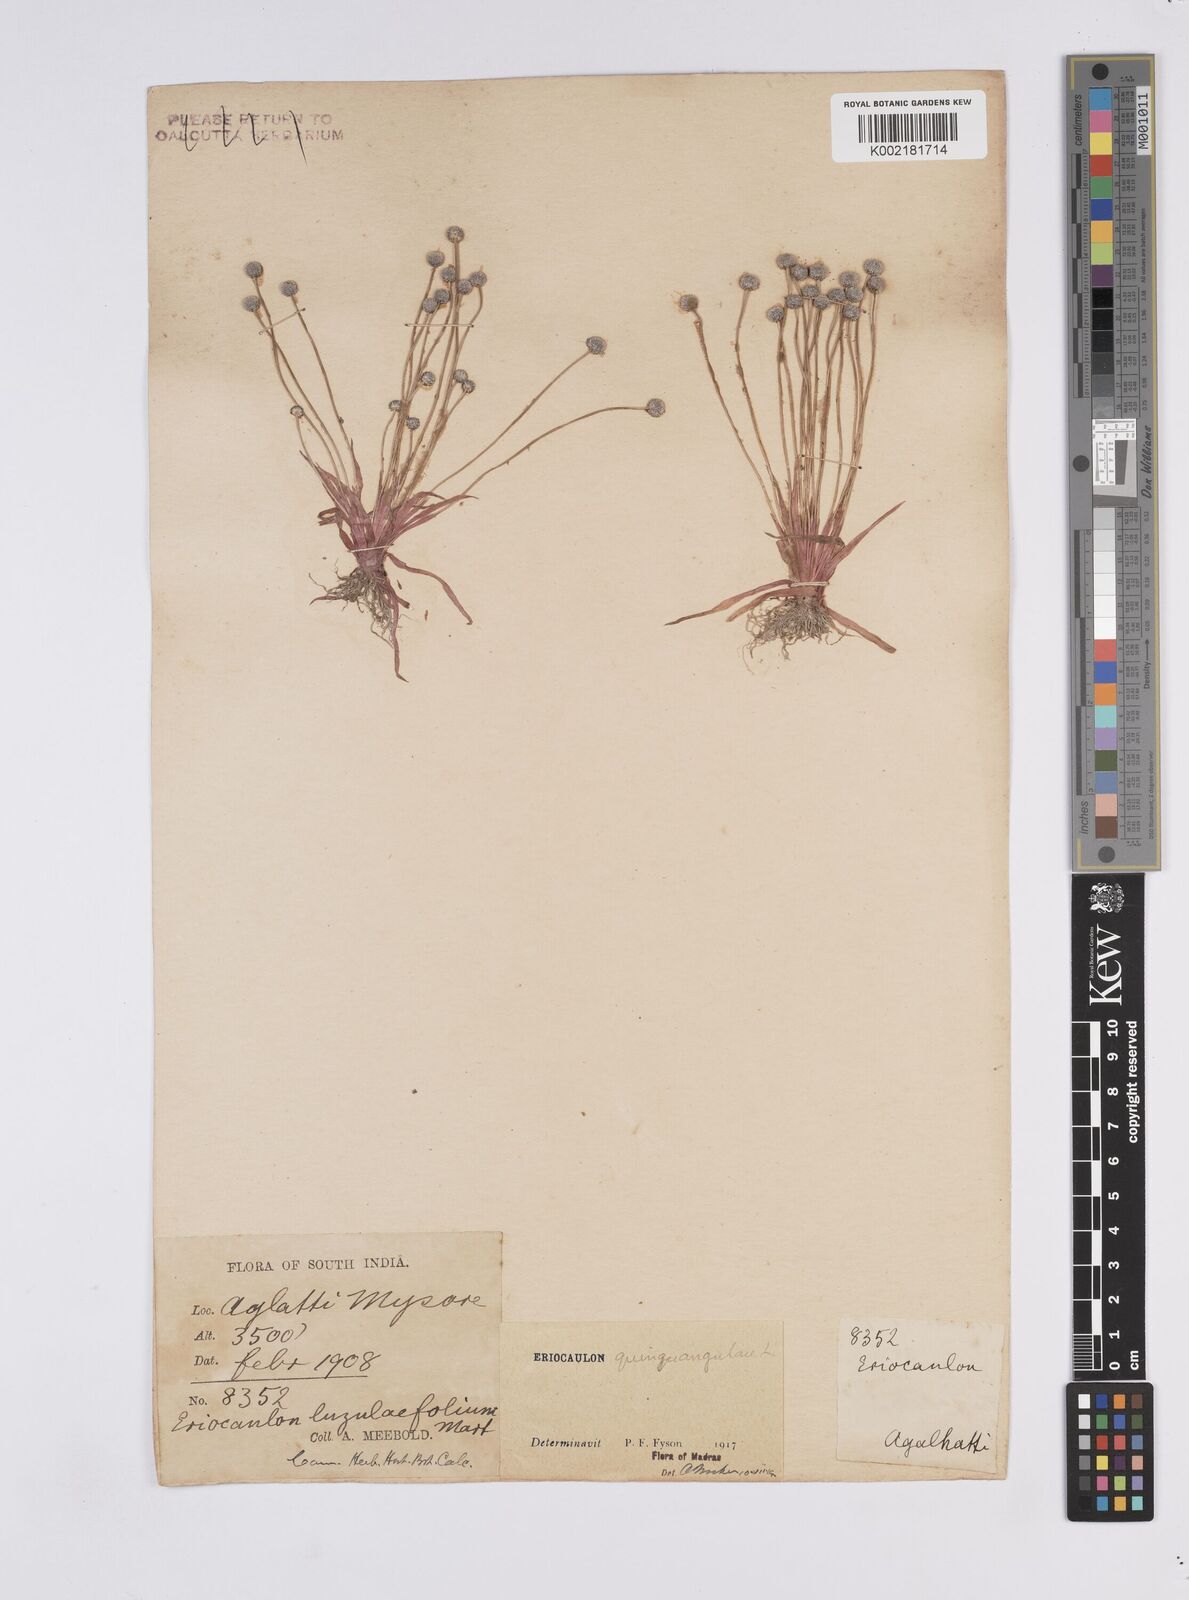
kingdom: Plantae
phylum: Tracheophyta
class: Liliopsida
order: Poales
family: Eriocaulaceae
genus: Eriocaulon
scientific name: Eriocaulon quinquangulare
